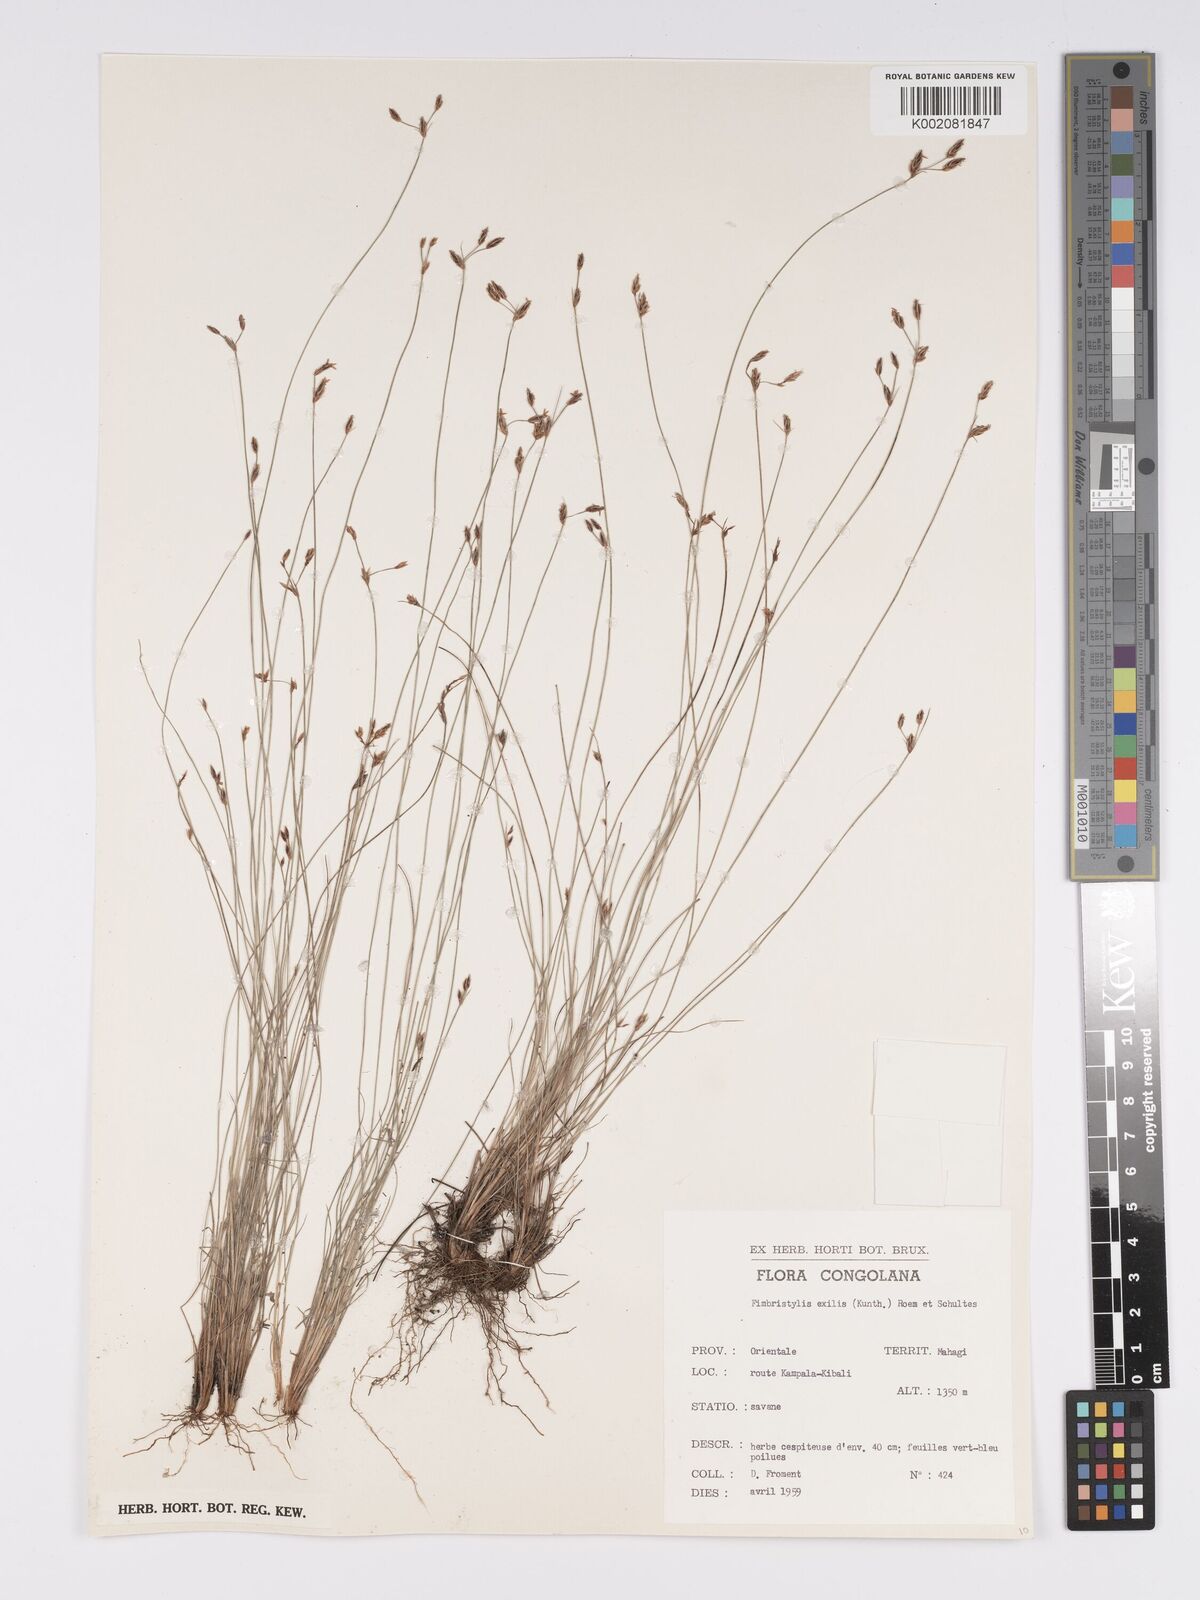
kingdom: Plantae
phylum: Tracheophyta
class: Liliopsida
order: Poales
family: Cyperaceae
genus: Bulbostylis
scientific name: Bulbostylis hispidula
